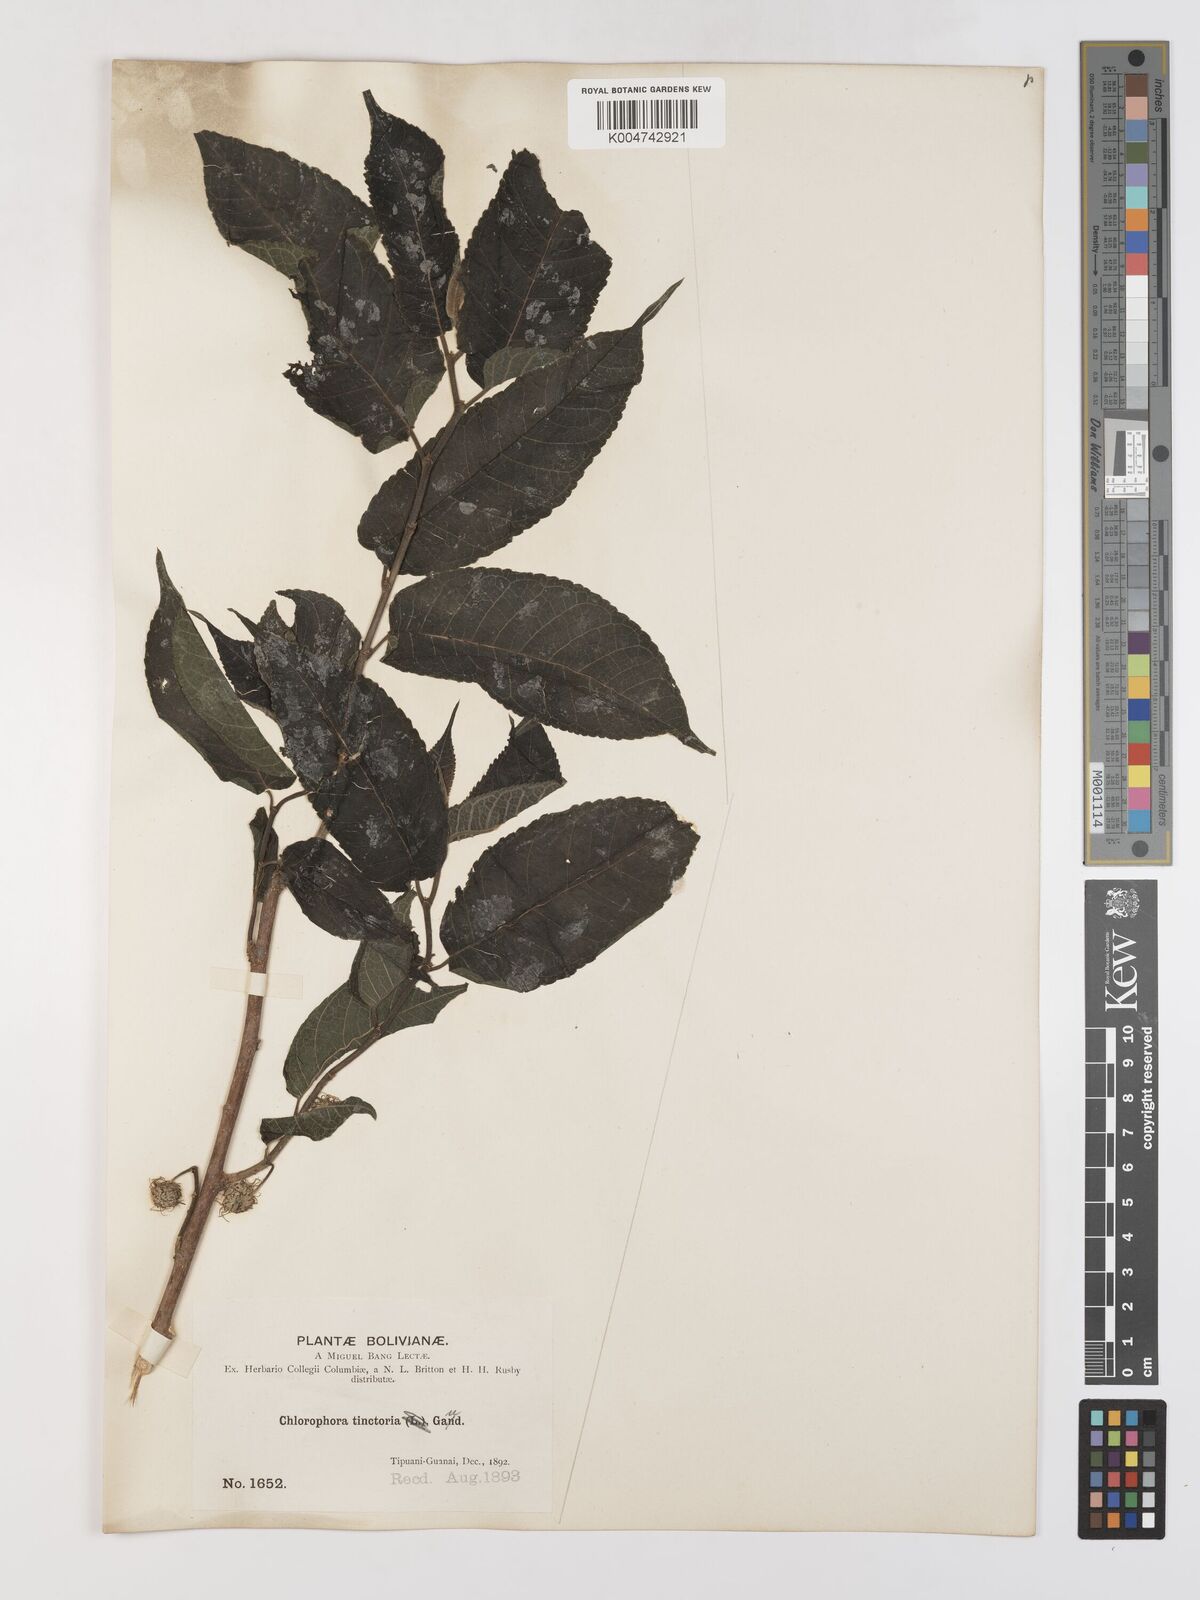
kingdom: Plantae
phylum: Tracheophyta
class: Magnoliopsida
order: Rosales
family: Moraceae
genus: Maclura
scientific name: Maclura tinctoria
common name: Old fustic
